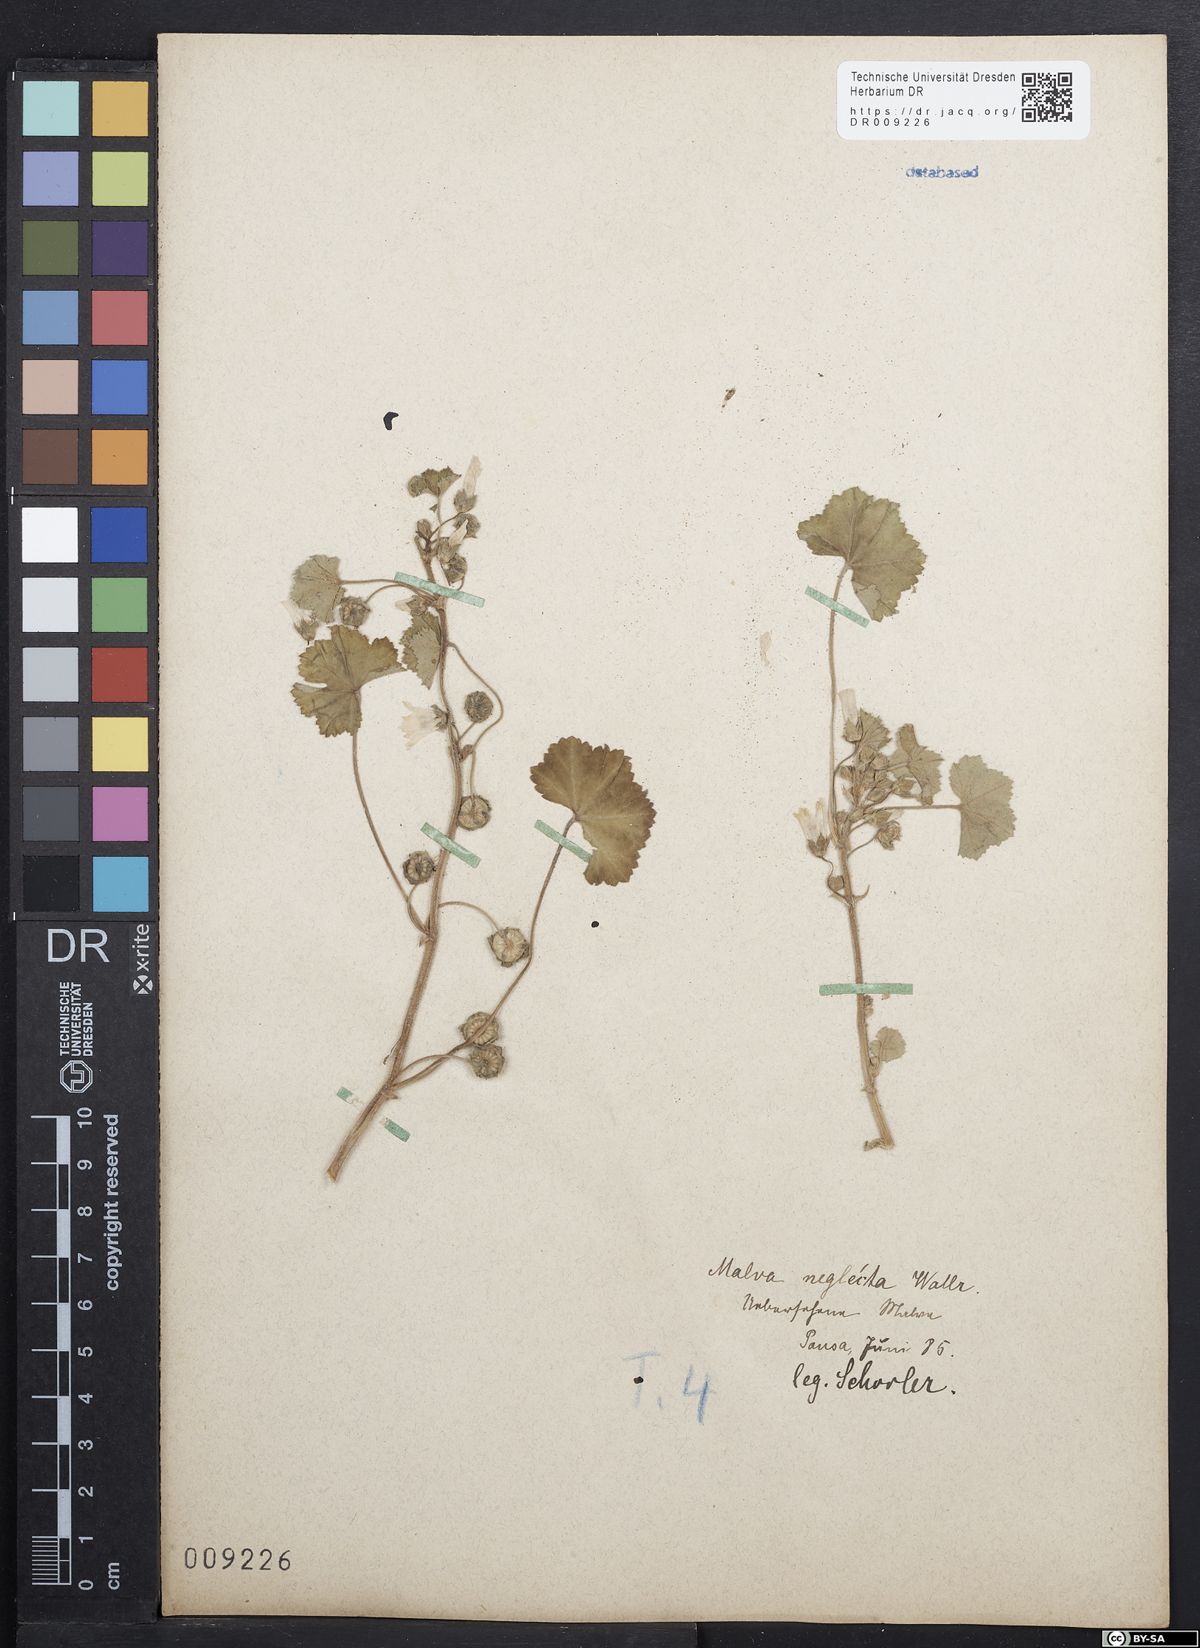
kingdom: Plantae
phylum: Tracheophyta
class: Magnoliopsida
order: Malvales
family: Malvaceae
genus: Malva
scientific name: Malva neglecta
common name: Common mallow
